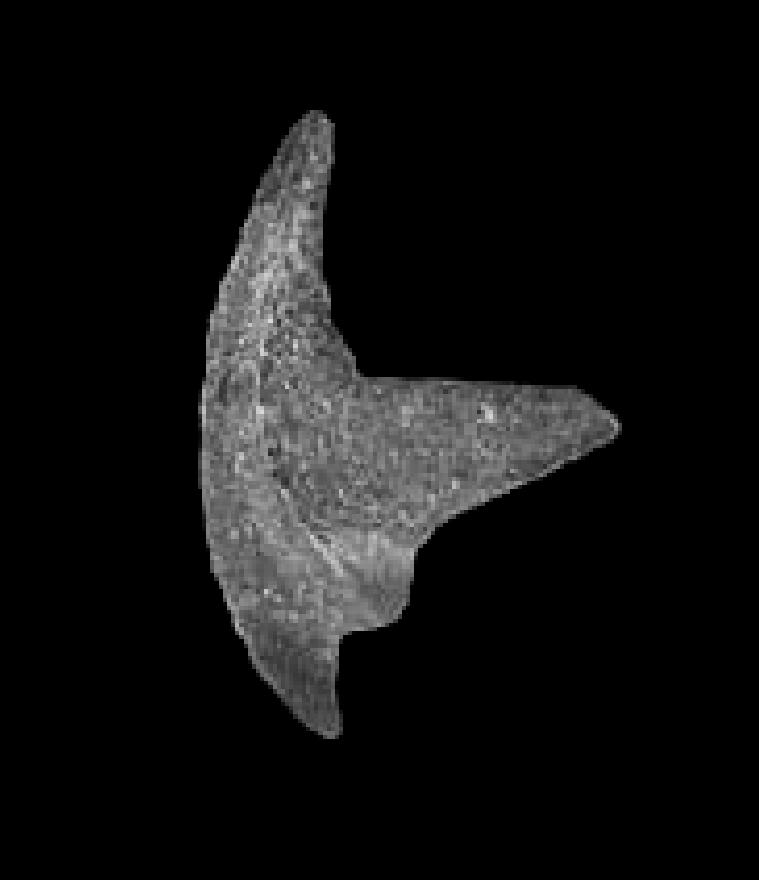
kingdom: Animalia
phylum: Chordata
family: Belodellidae
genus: Stolodus
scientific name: Stolodus Distacodus stola
